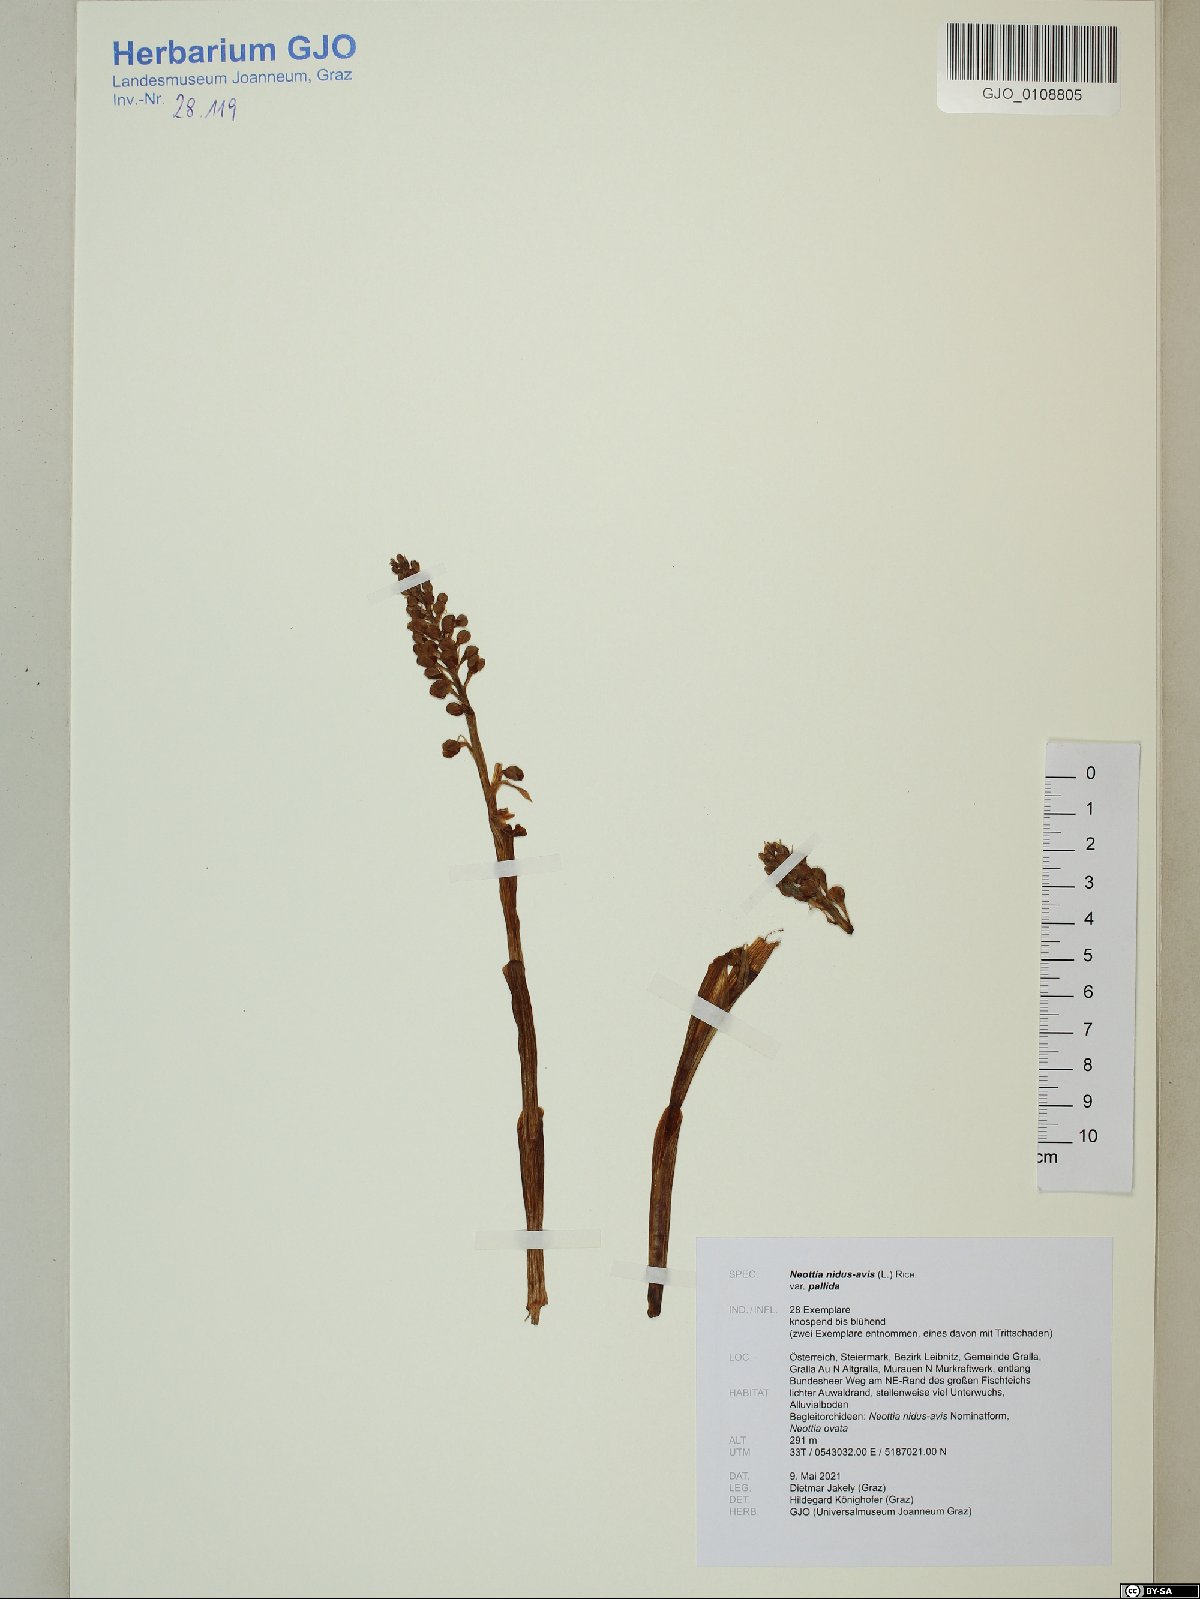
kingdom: Plantae
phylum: Tracheophyta
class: Liliopsida
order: Asparagales
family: Orchidaceae
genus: Neottia
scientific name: Neottia nidus-avis
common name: Bird's-nest orchid
